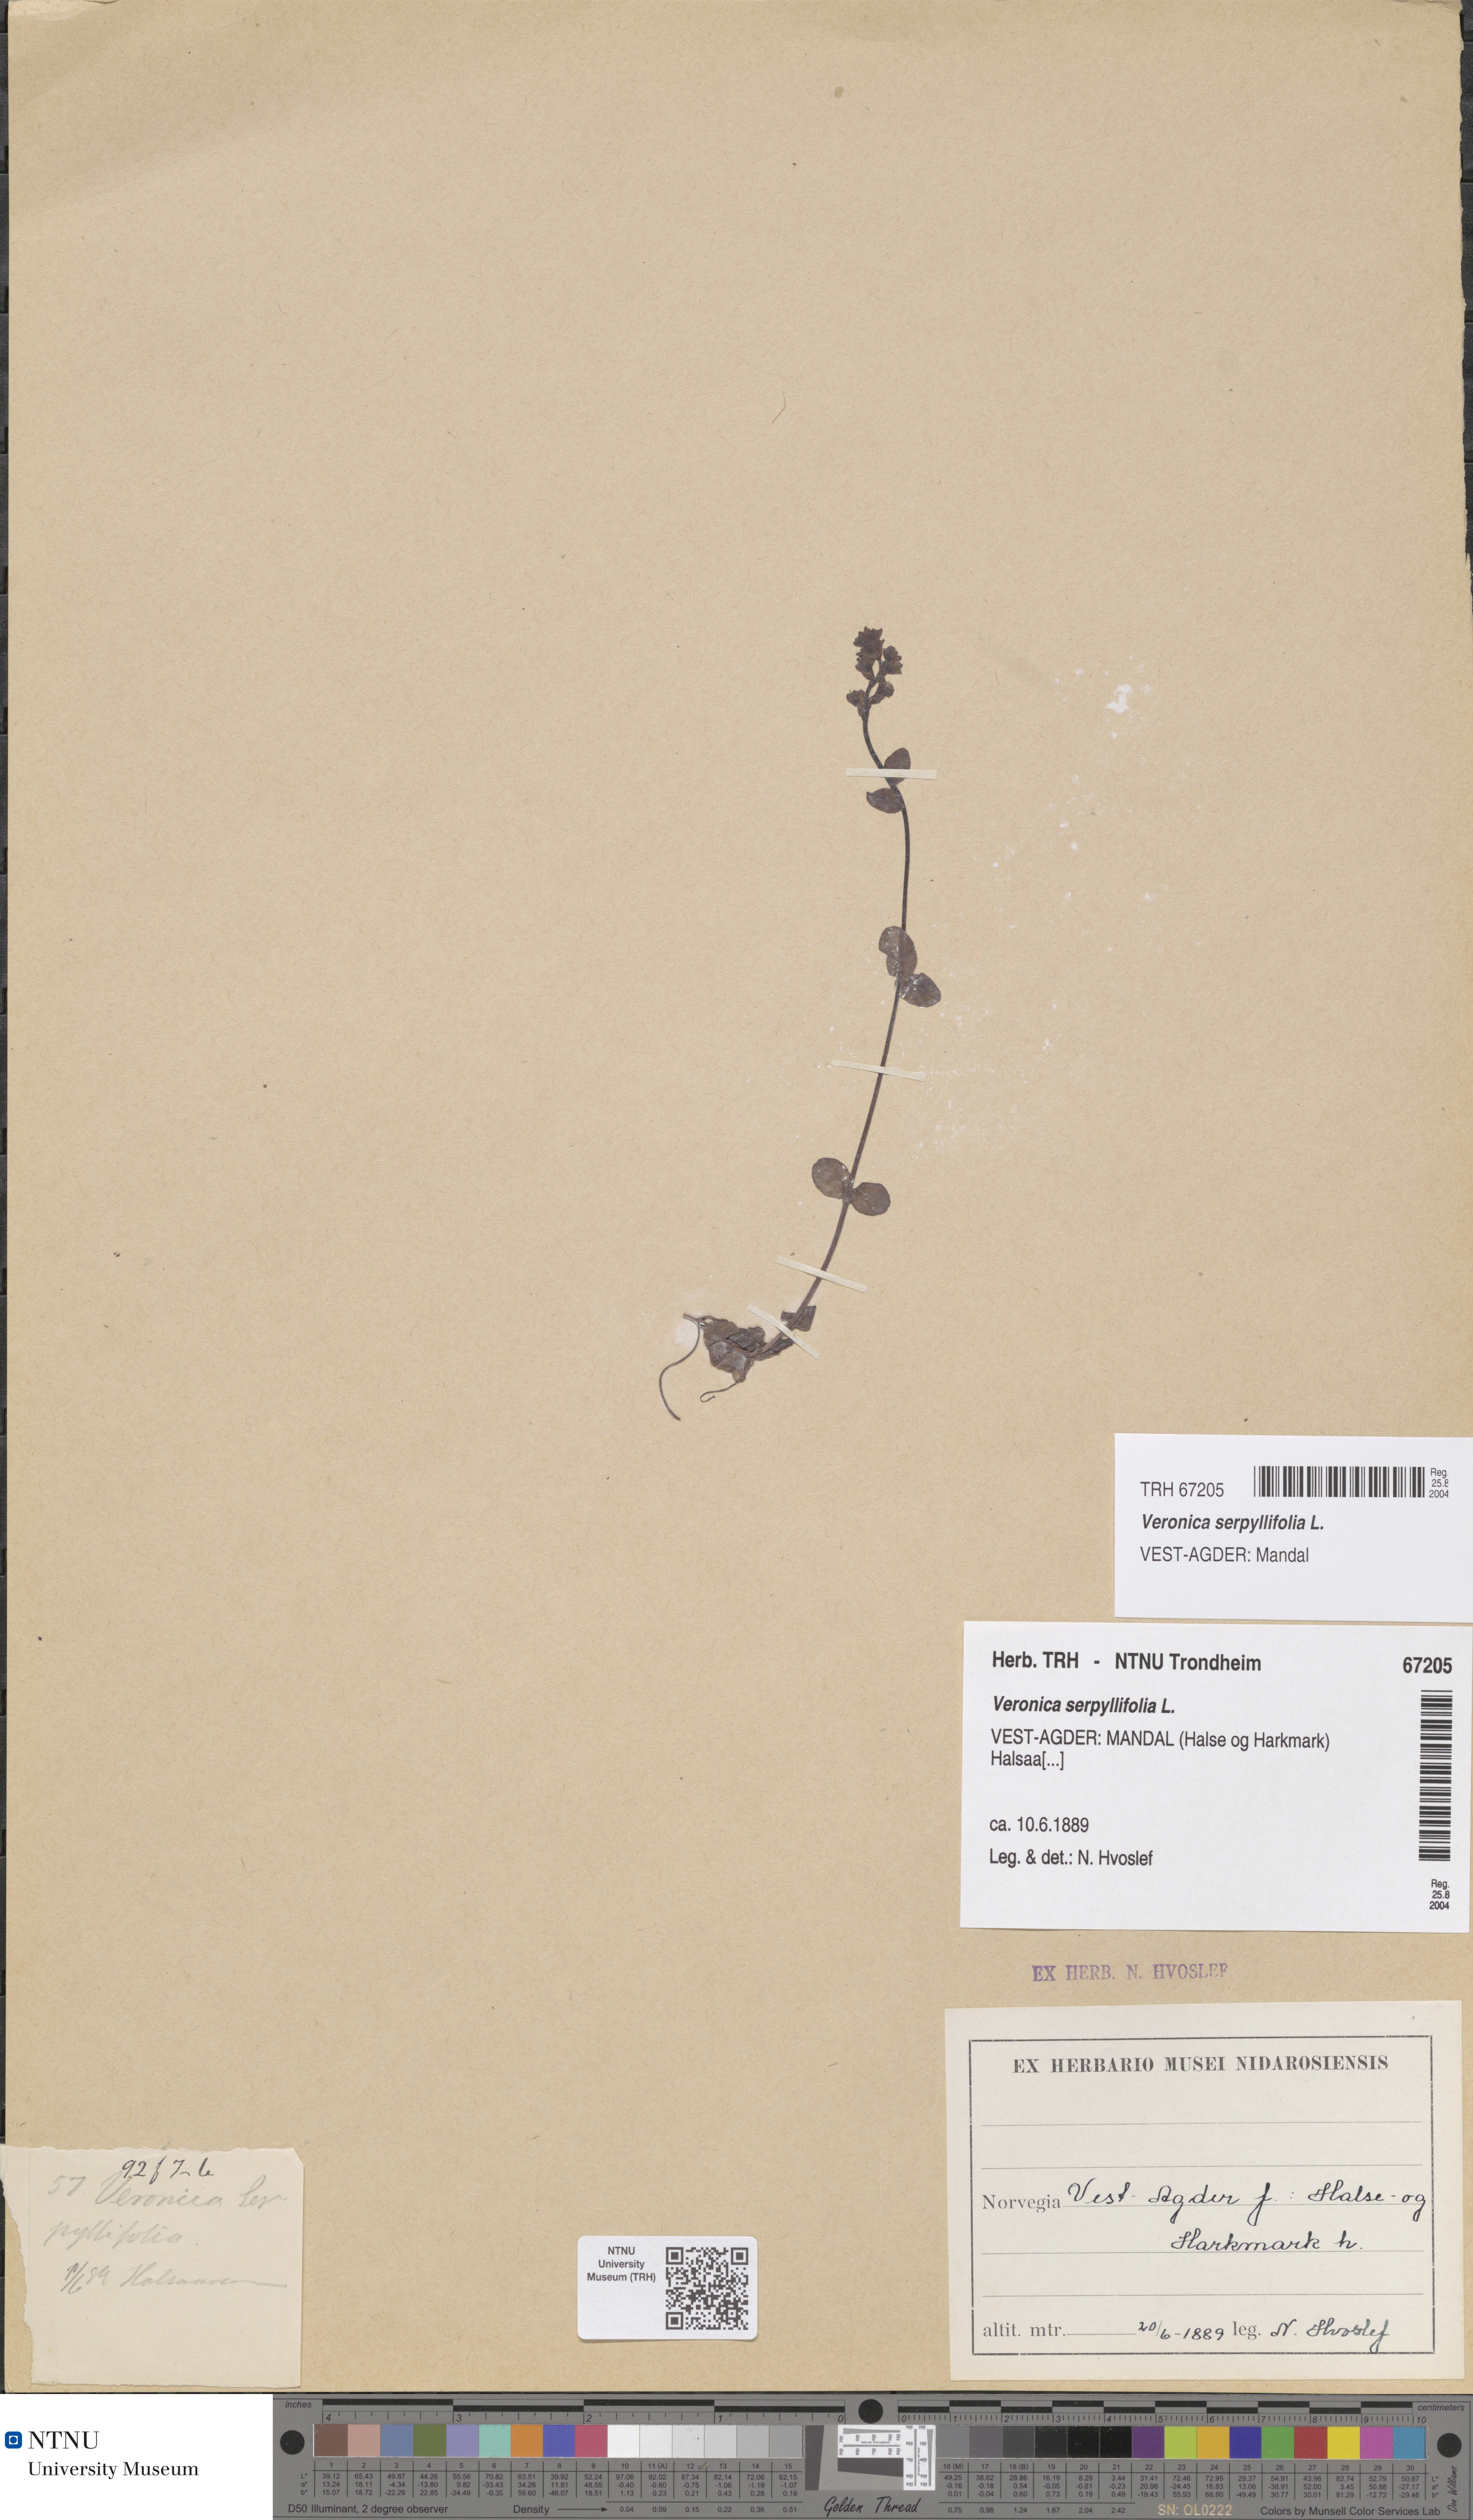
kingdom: Plantae
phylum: Tracheophyta
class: Magnoliopsida
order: Lamiales
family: Plantaginaceae
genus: Veronica
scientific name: Veronica serpyllifolia
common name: Thyme-leaved speedwell
